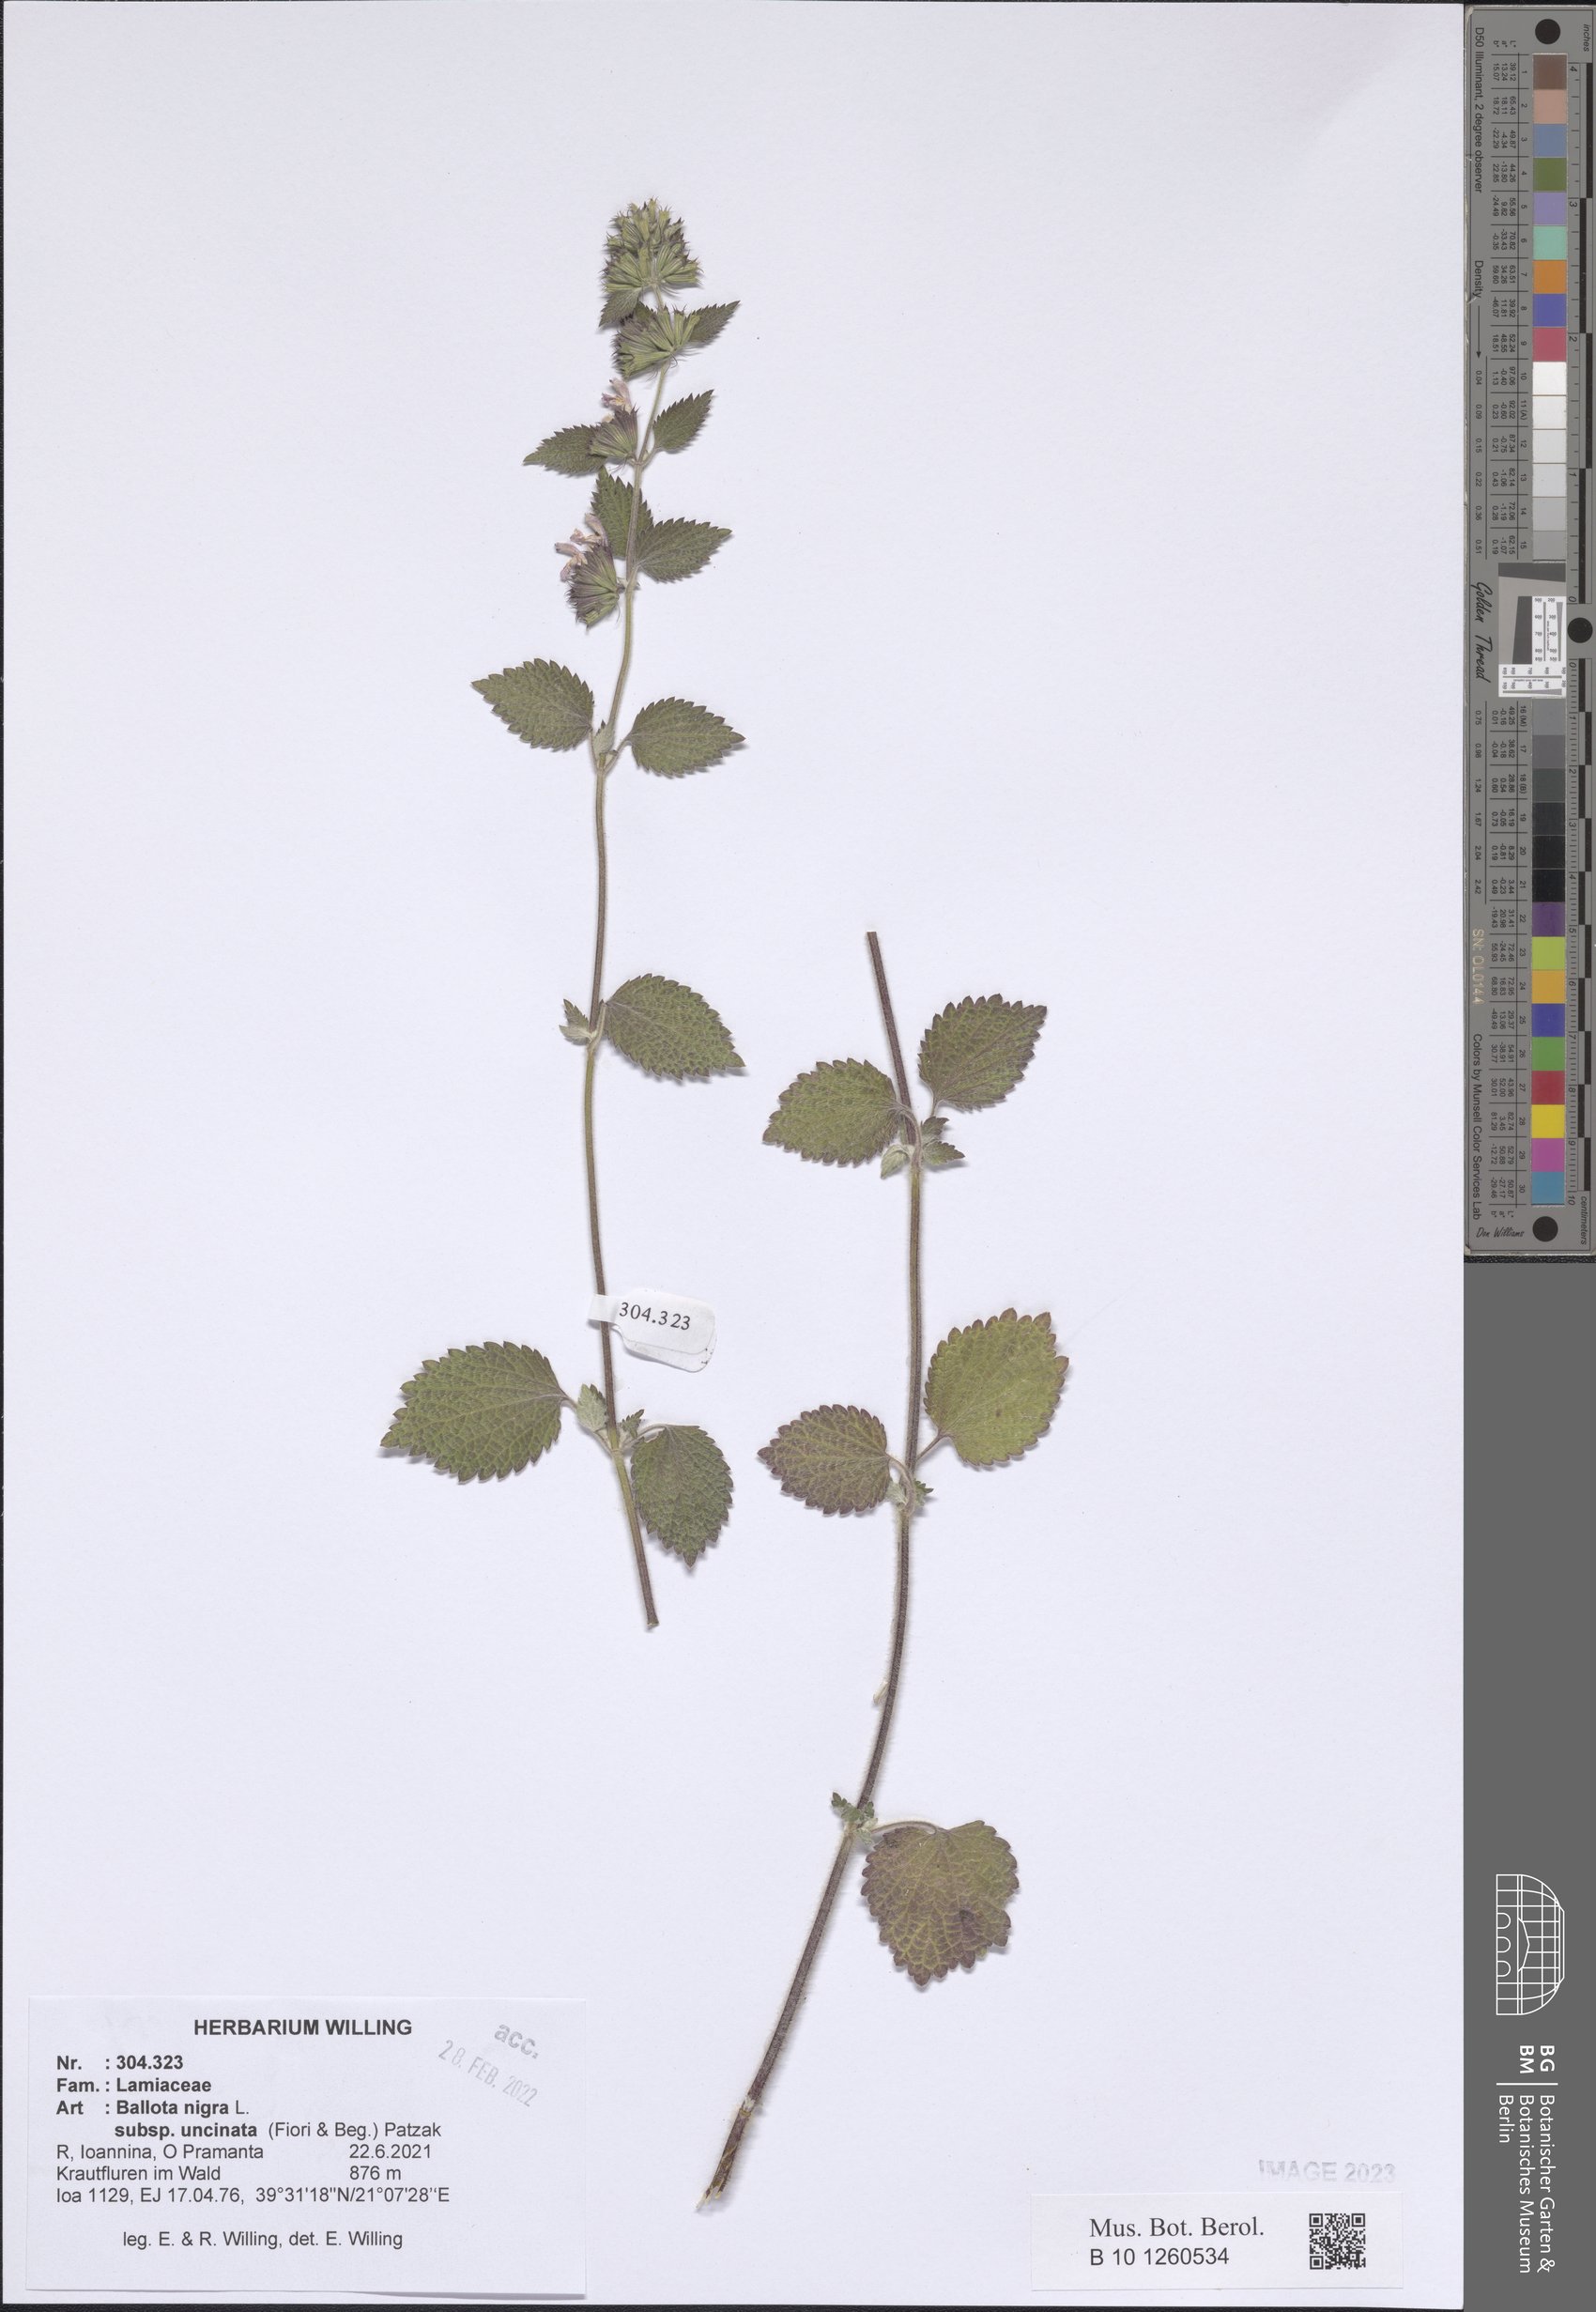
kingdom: Plantae
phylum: Tracheophyta
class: Magnoliopsida
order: Lamiales
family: Lamiaceae
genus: Ballota
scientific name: Ballota nigra
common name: Black horehound
